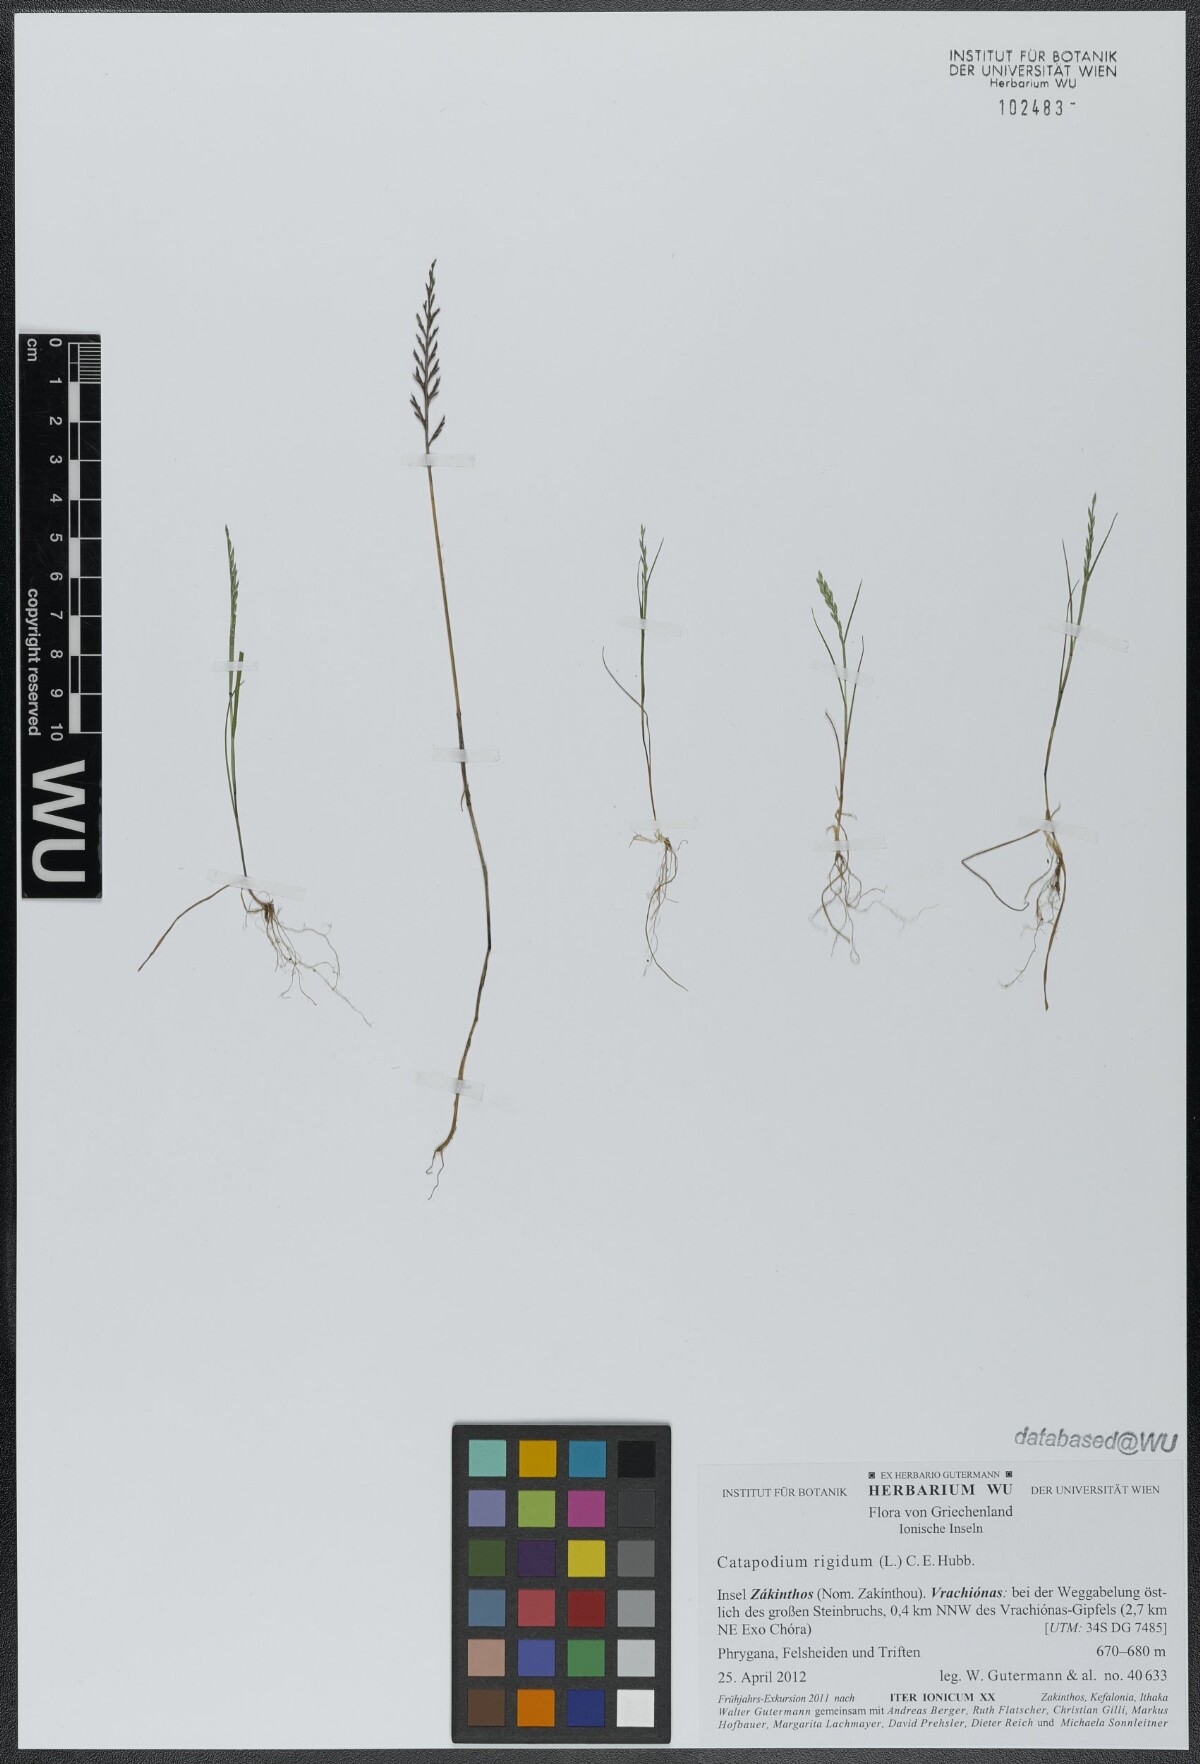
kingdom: Plantae
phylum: Tracheophyta
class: Liliopsida
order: Poales
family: Poaceae
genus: Catapodium
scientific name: Catapodium rigidum
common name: Fern-grass
